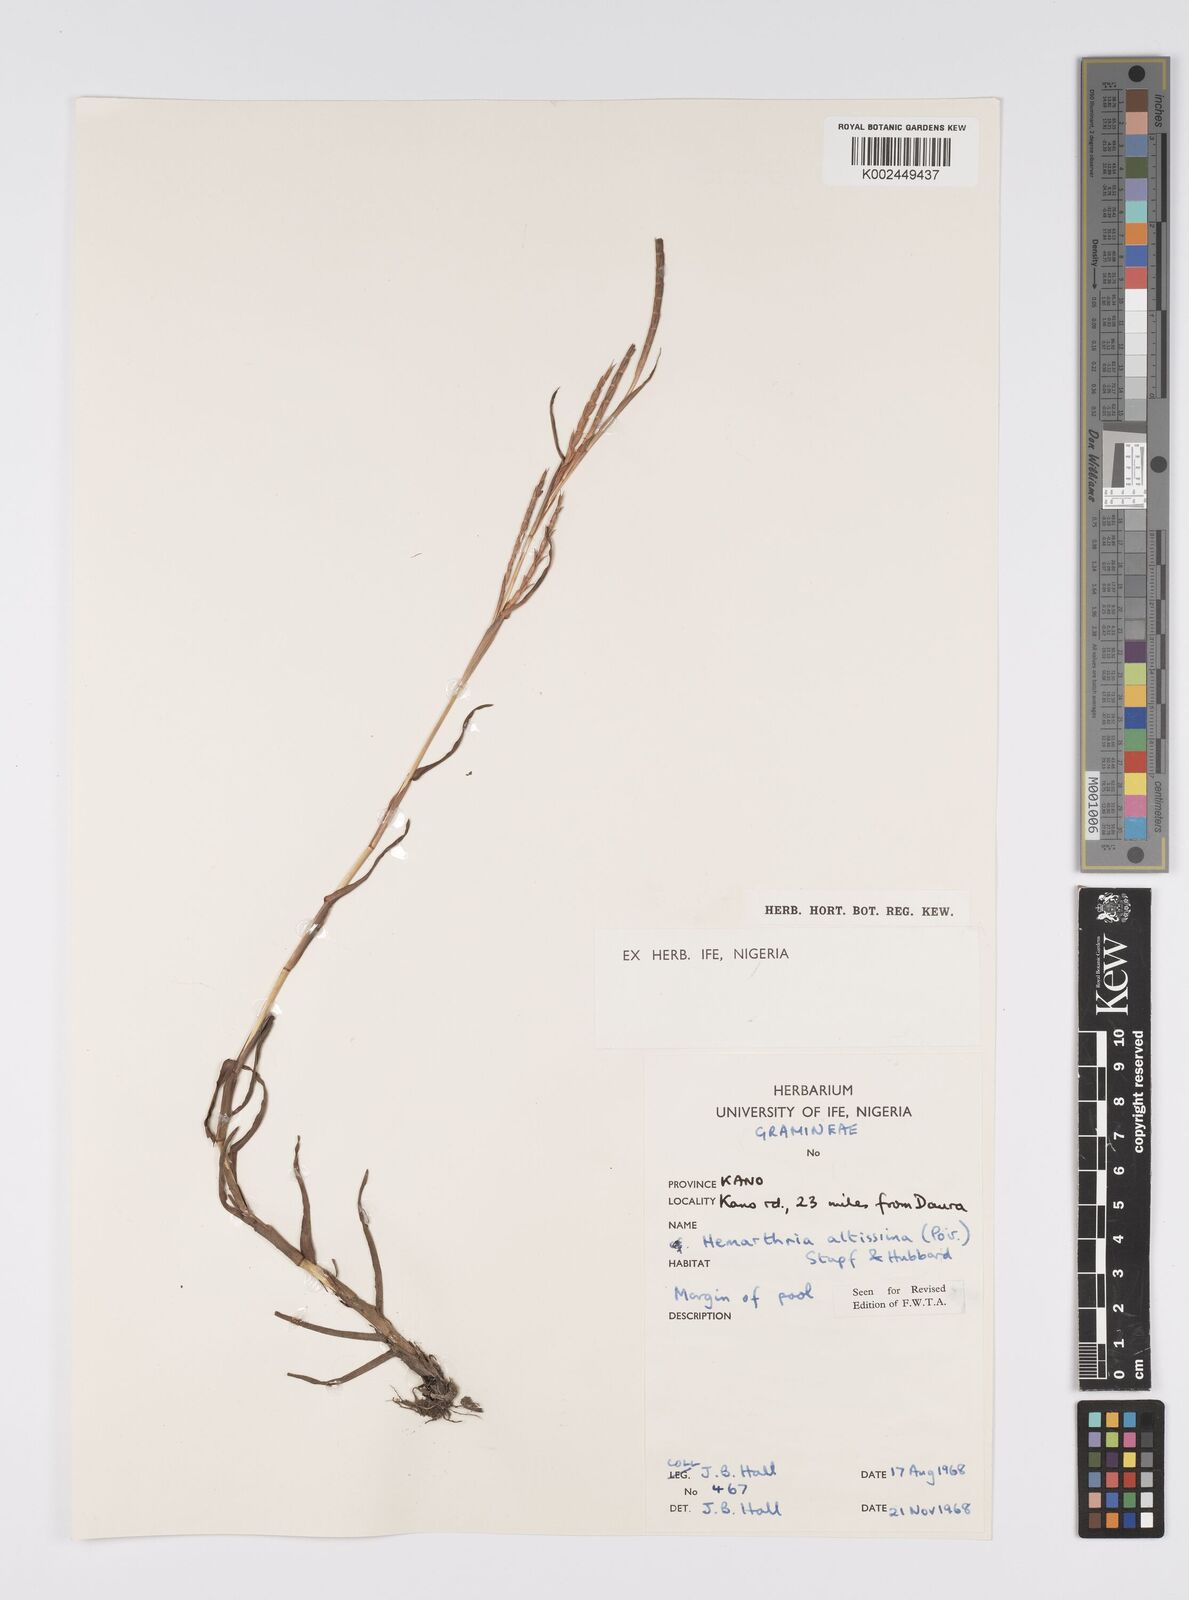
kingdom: Plantae
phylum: Tracheophyta
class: Liliopsida
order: Poales
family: Poaceae
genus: Hemarthria
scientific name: Hemarthria altissima
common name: African jointgrass
